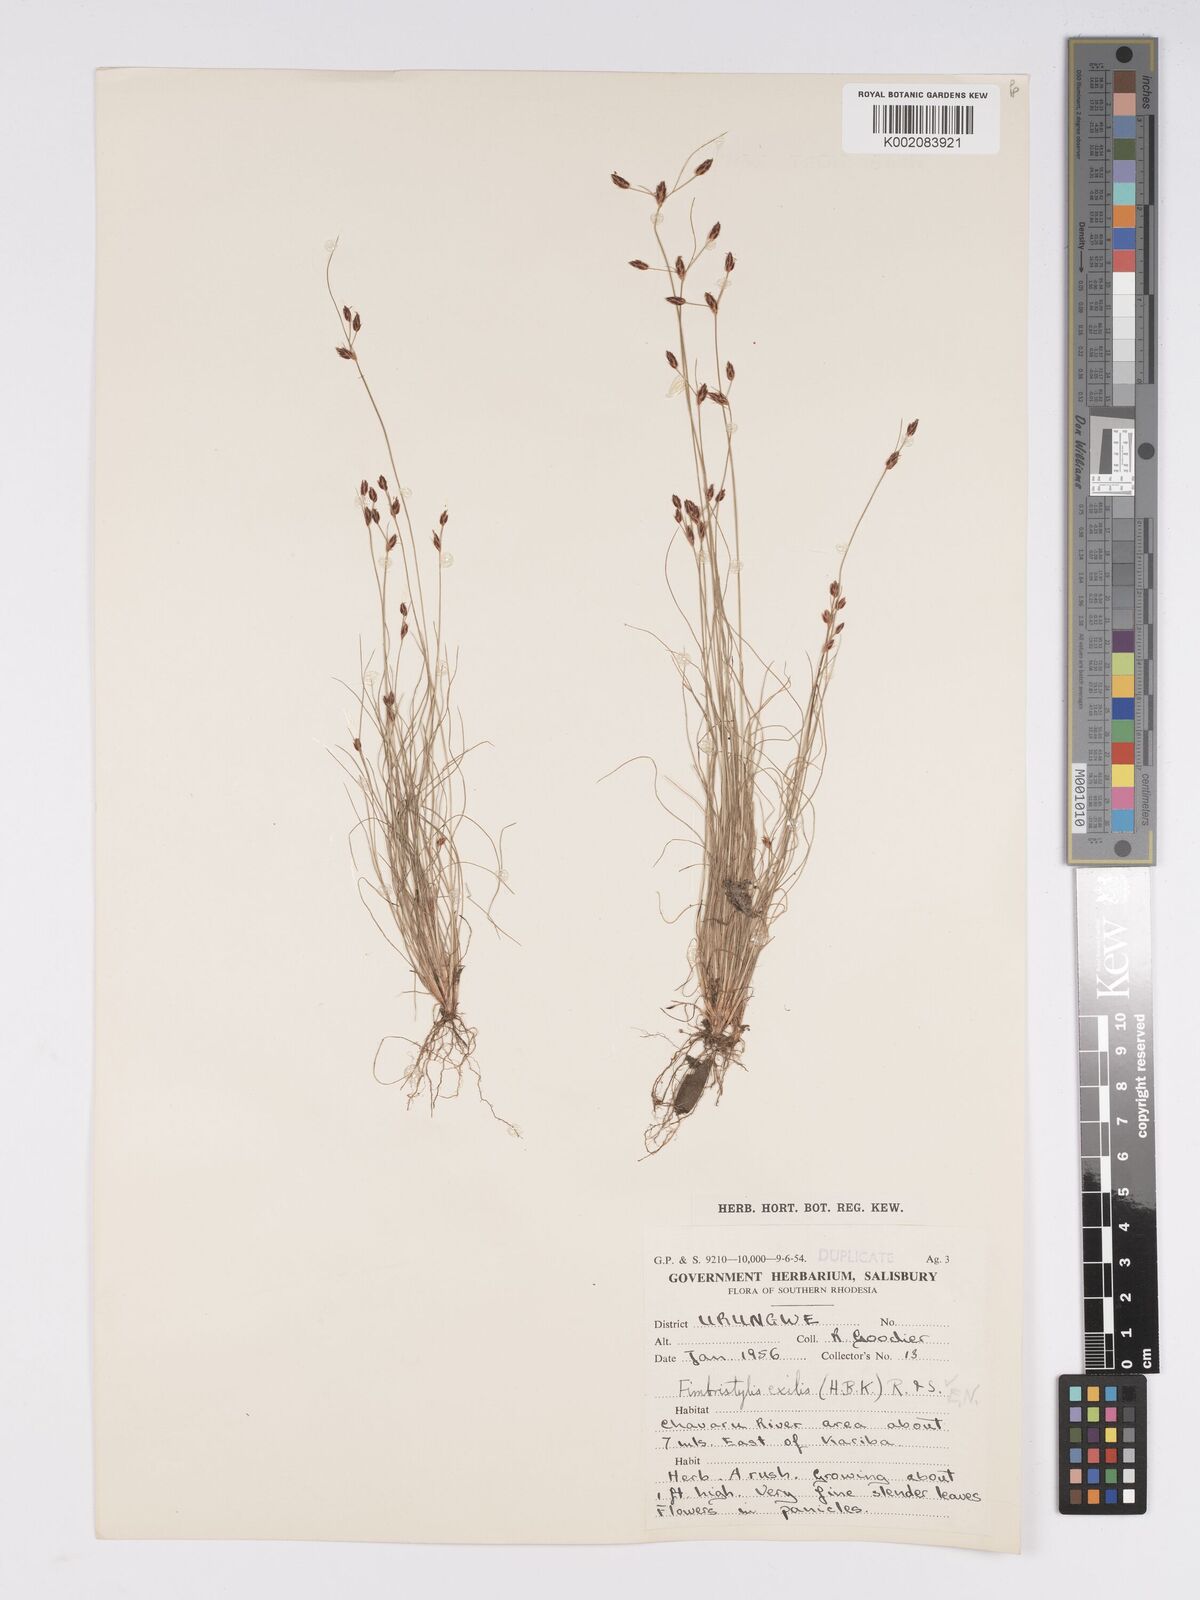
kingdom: Plantae
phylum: Tracheophyta
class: Liliopsida
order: Poales
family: Cyperaceae
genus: Bulbostylis
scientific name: Bulbostylis hispidula
